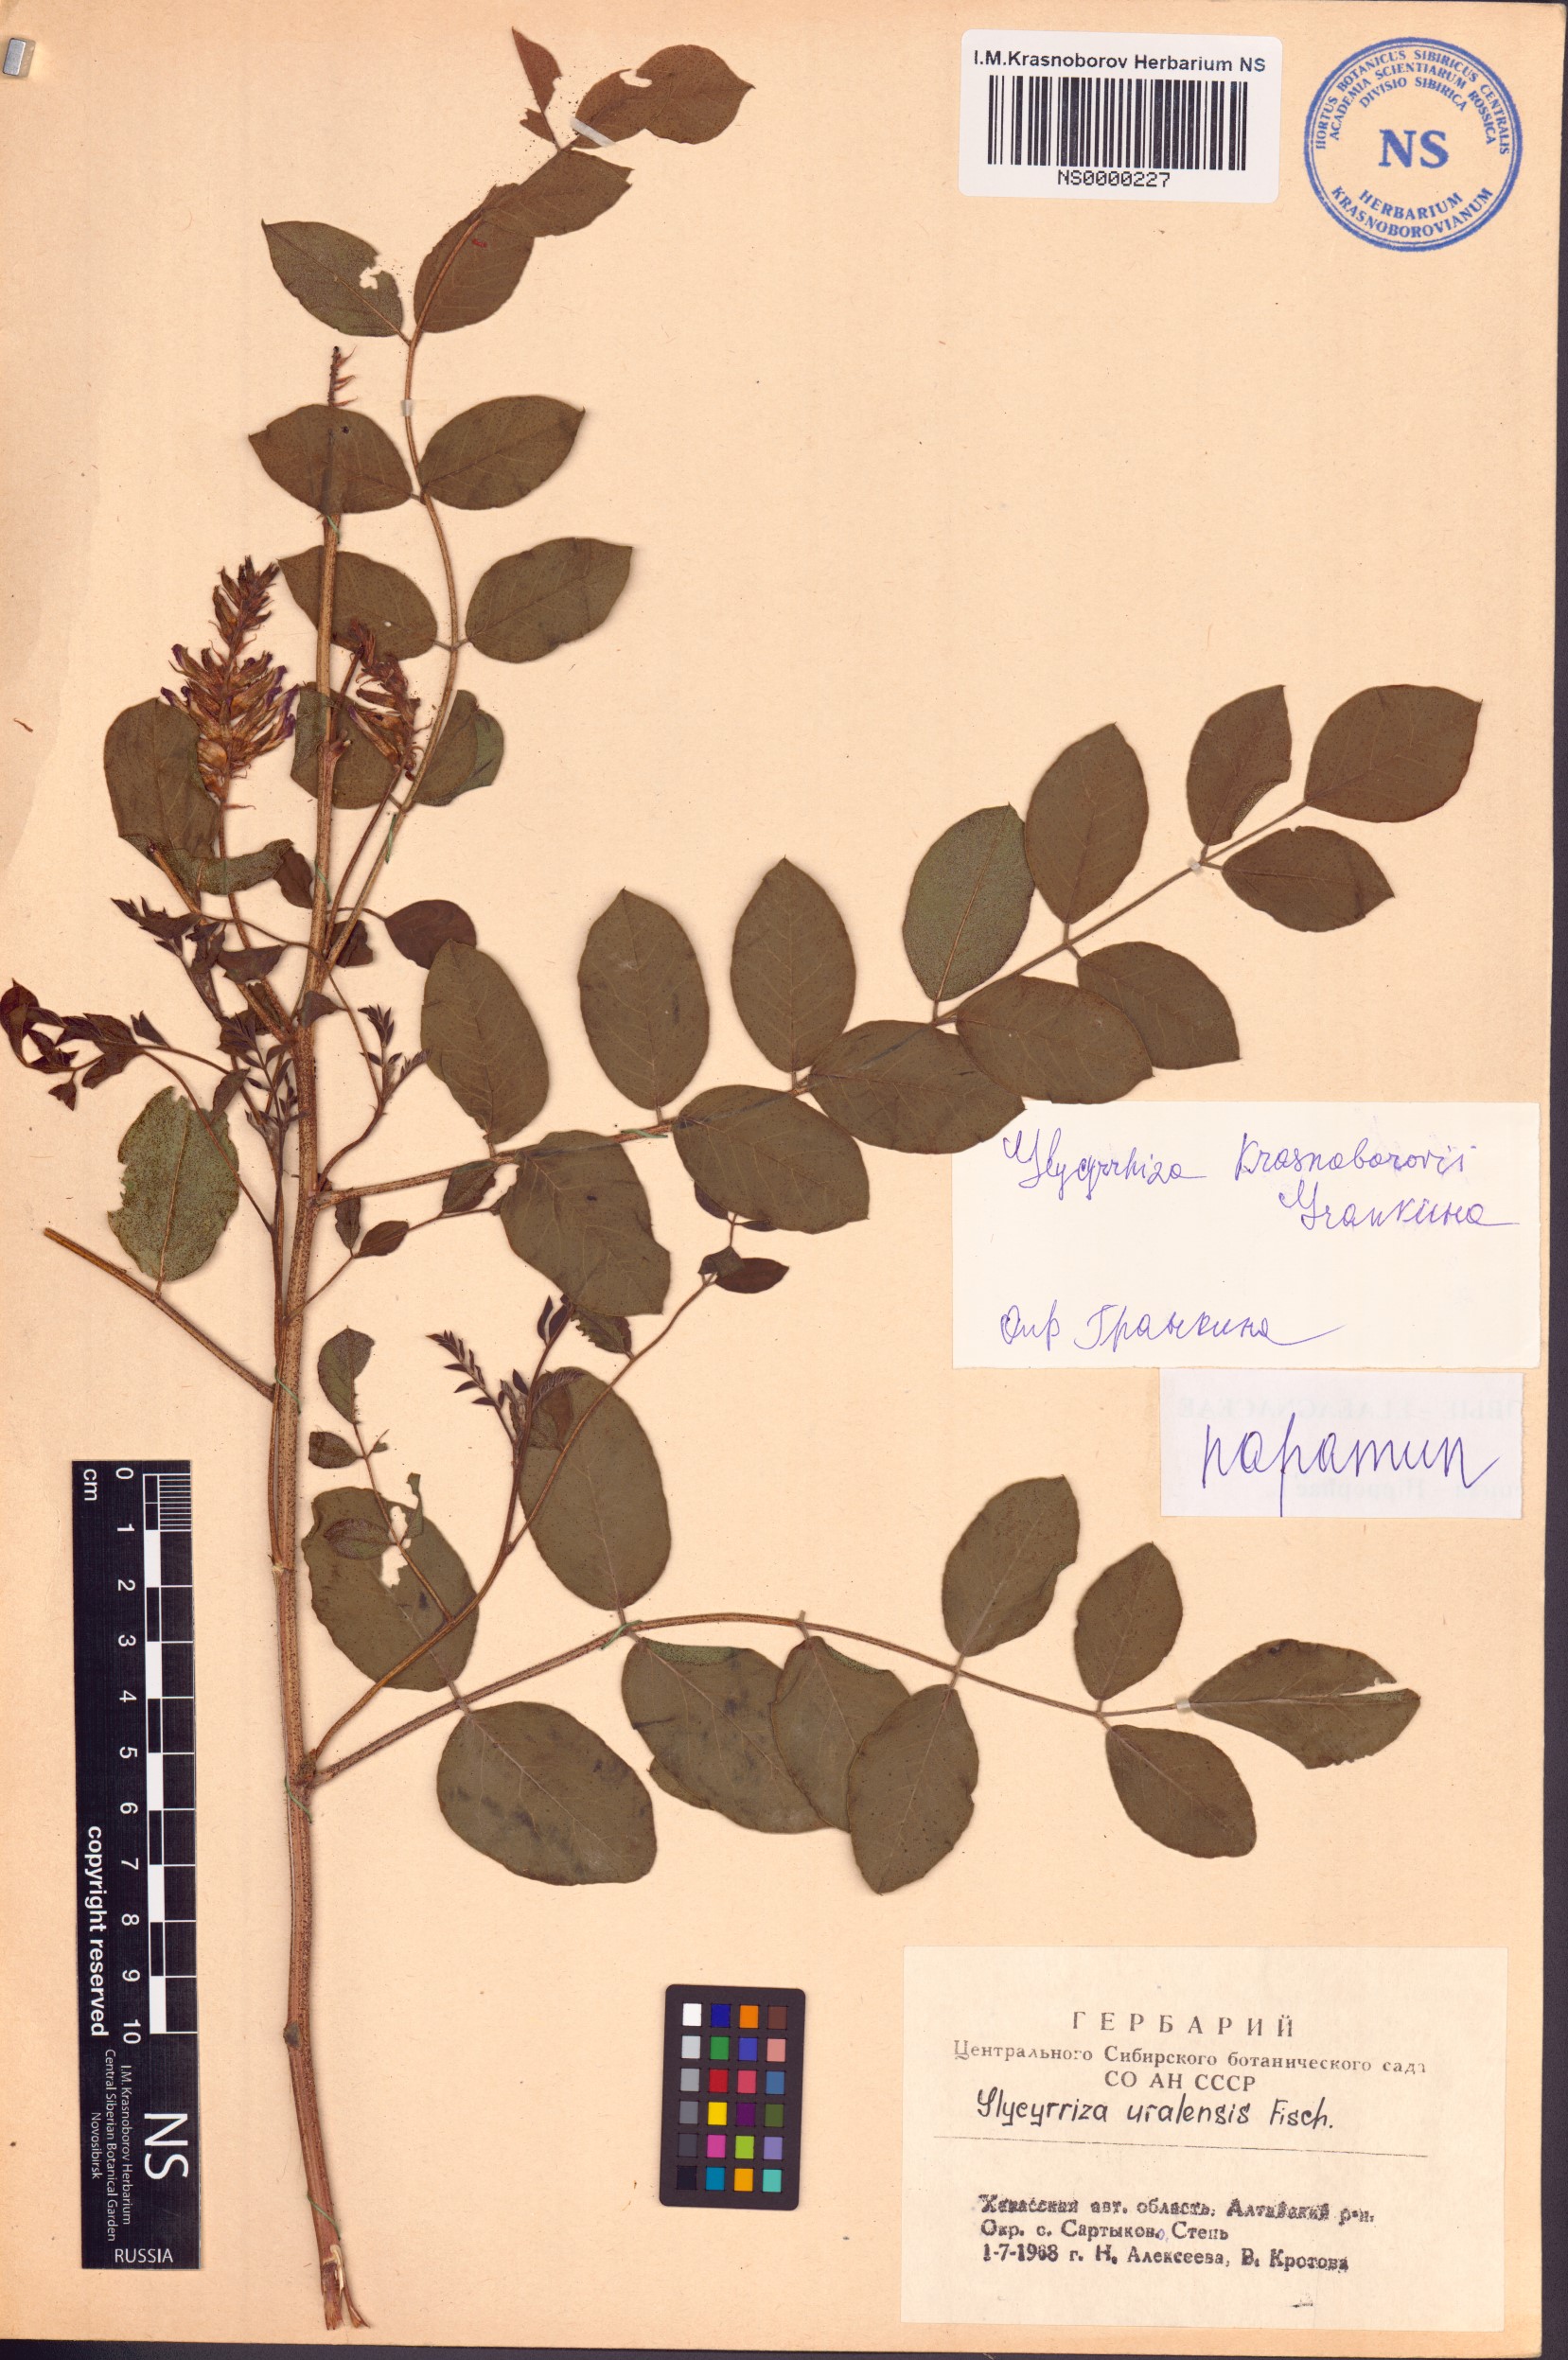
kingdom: Plantae
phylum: Tracheophyta
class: Magnoliopsida
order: Fabales
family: Fabaceae
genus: Glycyrrhiza
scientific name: Glycyrrhiza uralensis
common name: Chinese licorice
